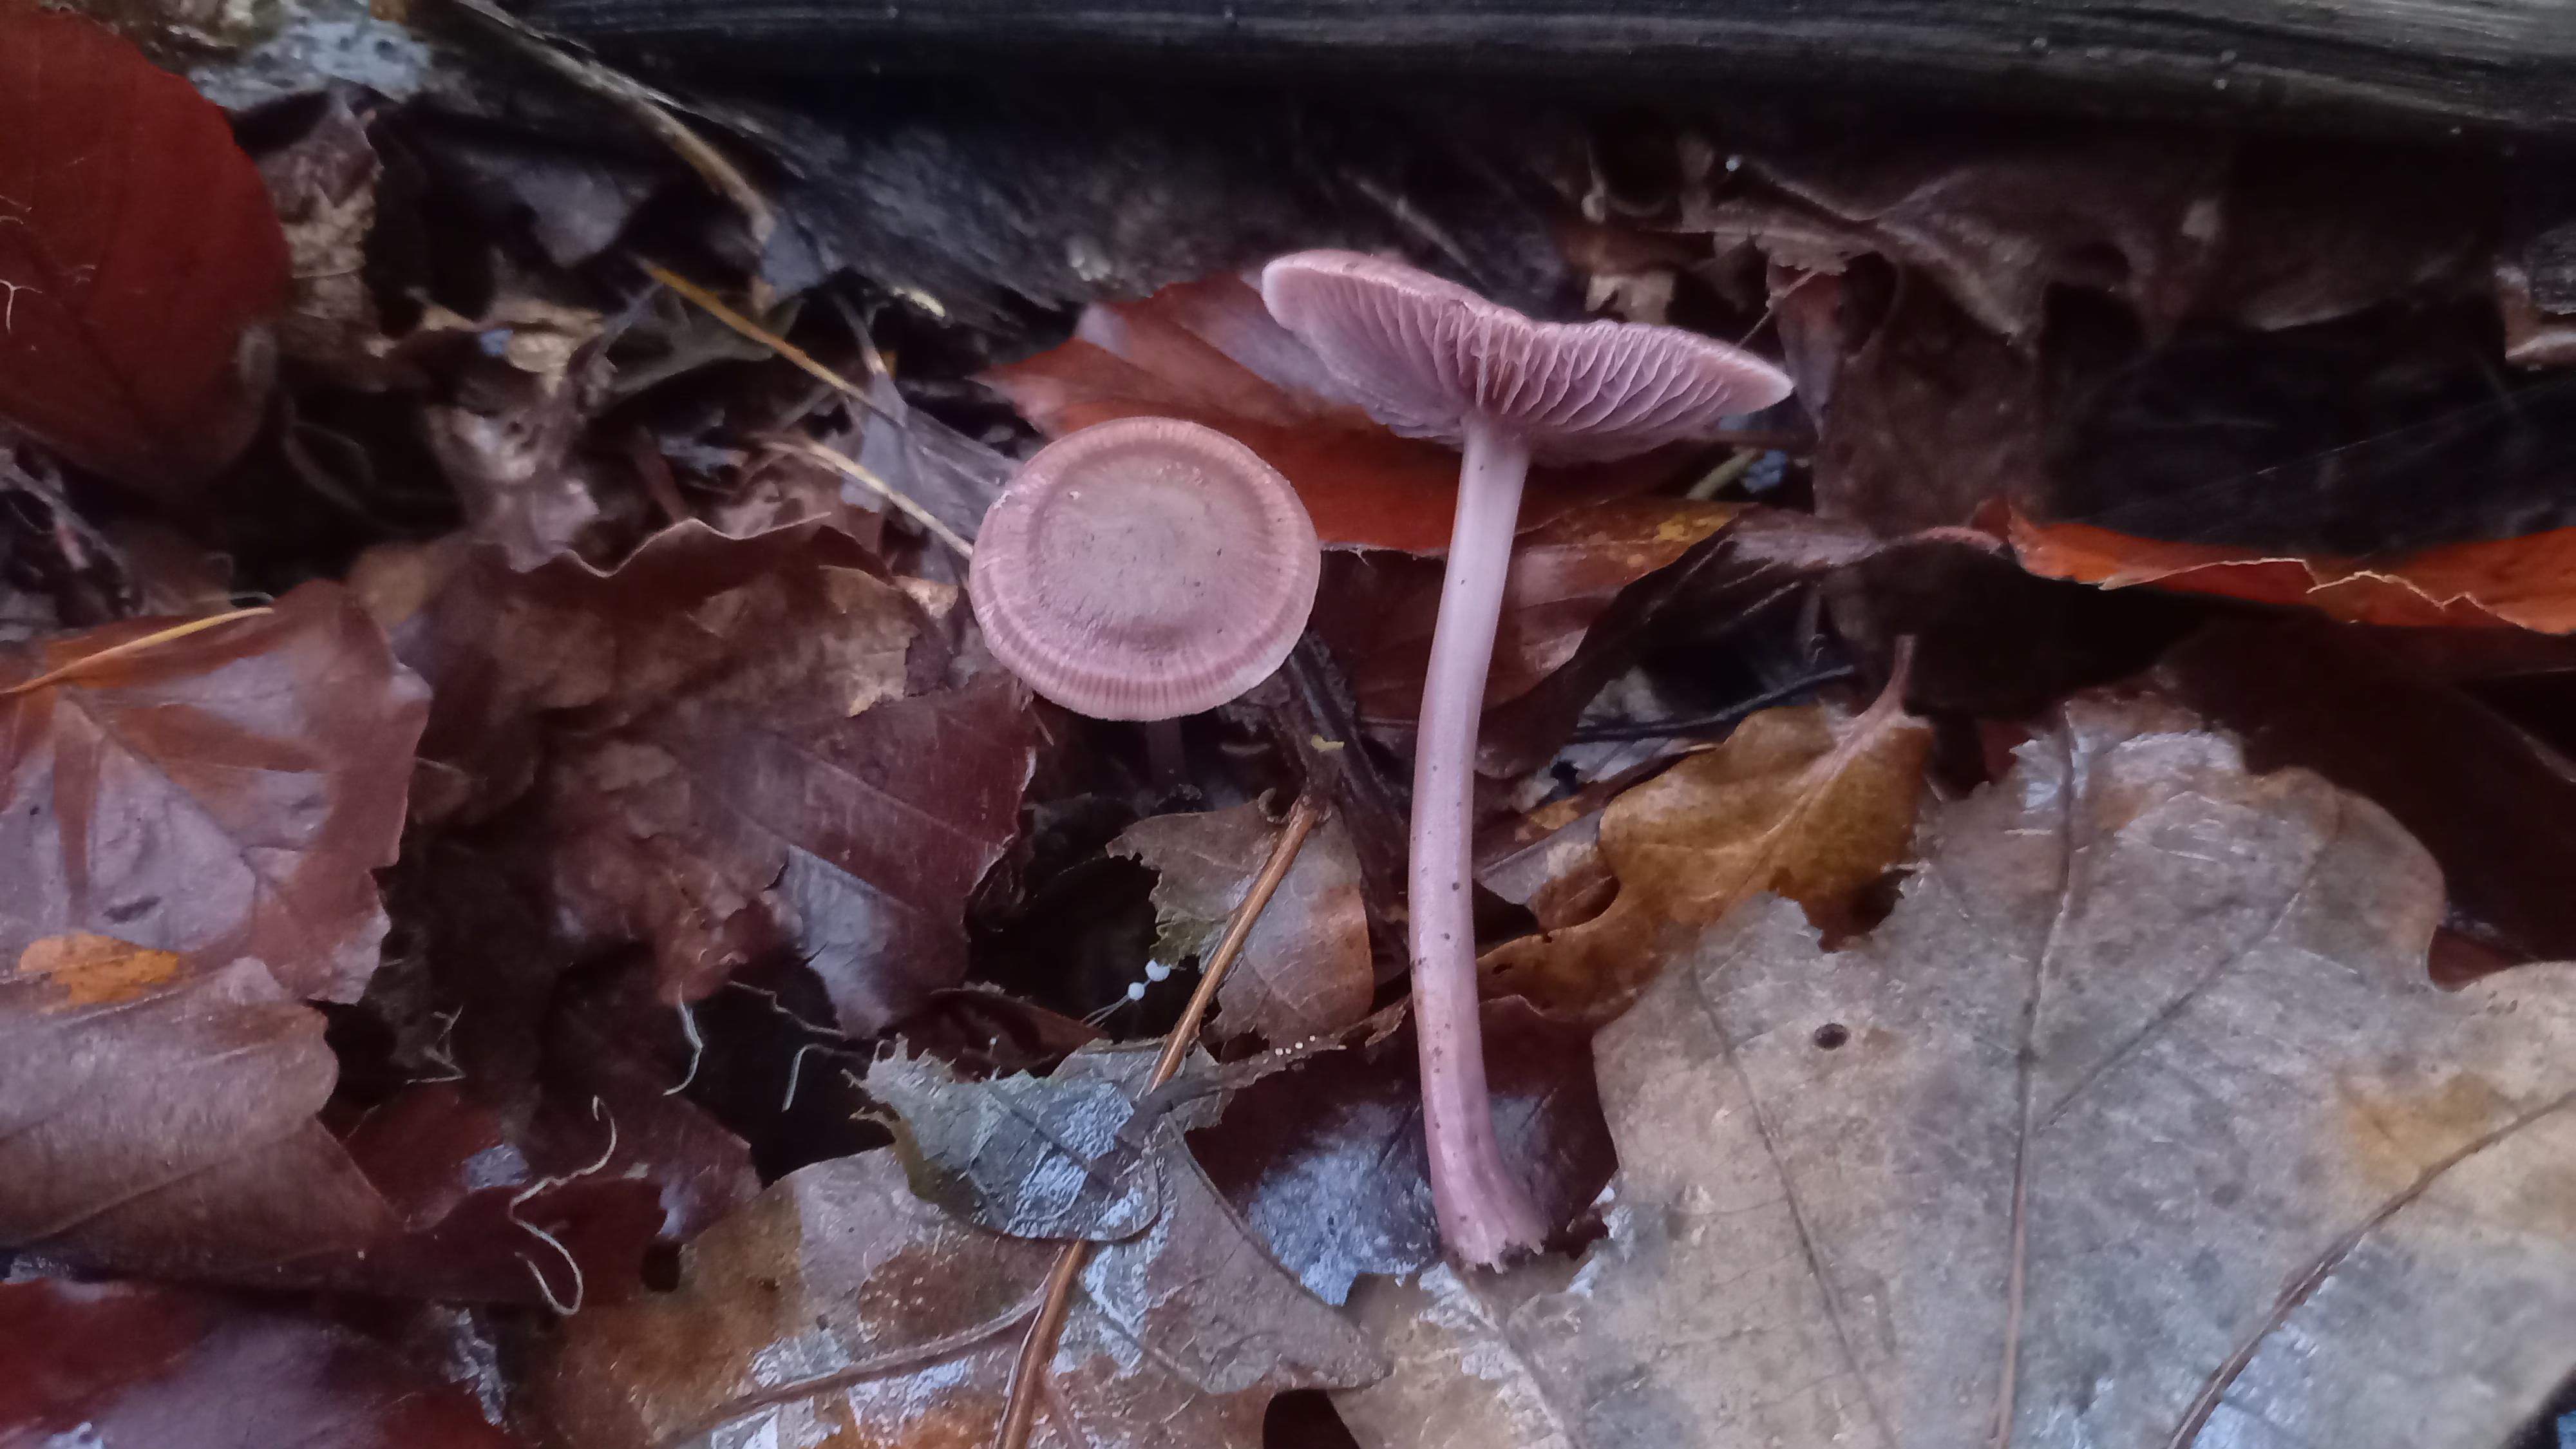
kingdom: Fungi
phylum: Basidiomycota
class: Agaricomycetes
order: Agaricales
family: Mycenaceae
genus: Prunulus
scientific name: Prunulus diosmus
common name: tobaks-huesvamp
